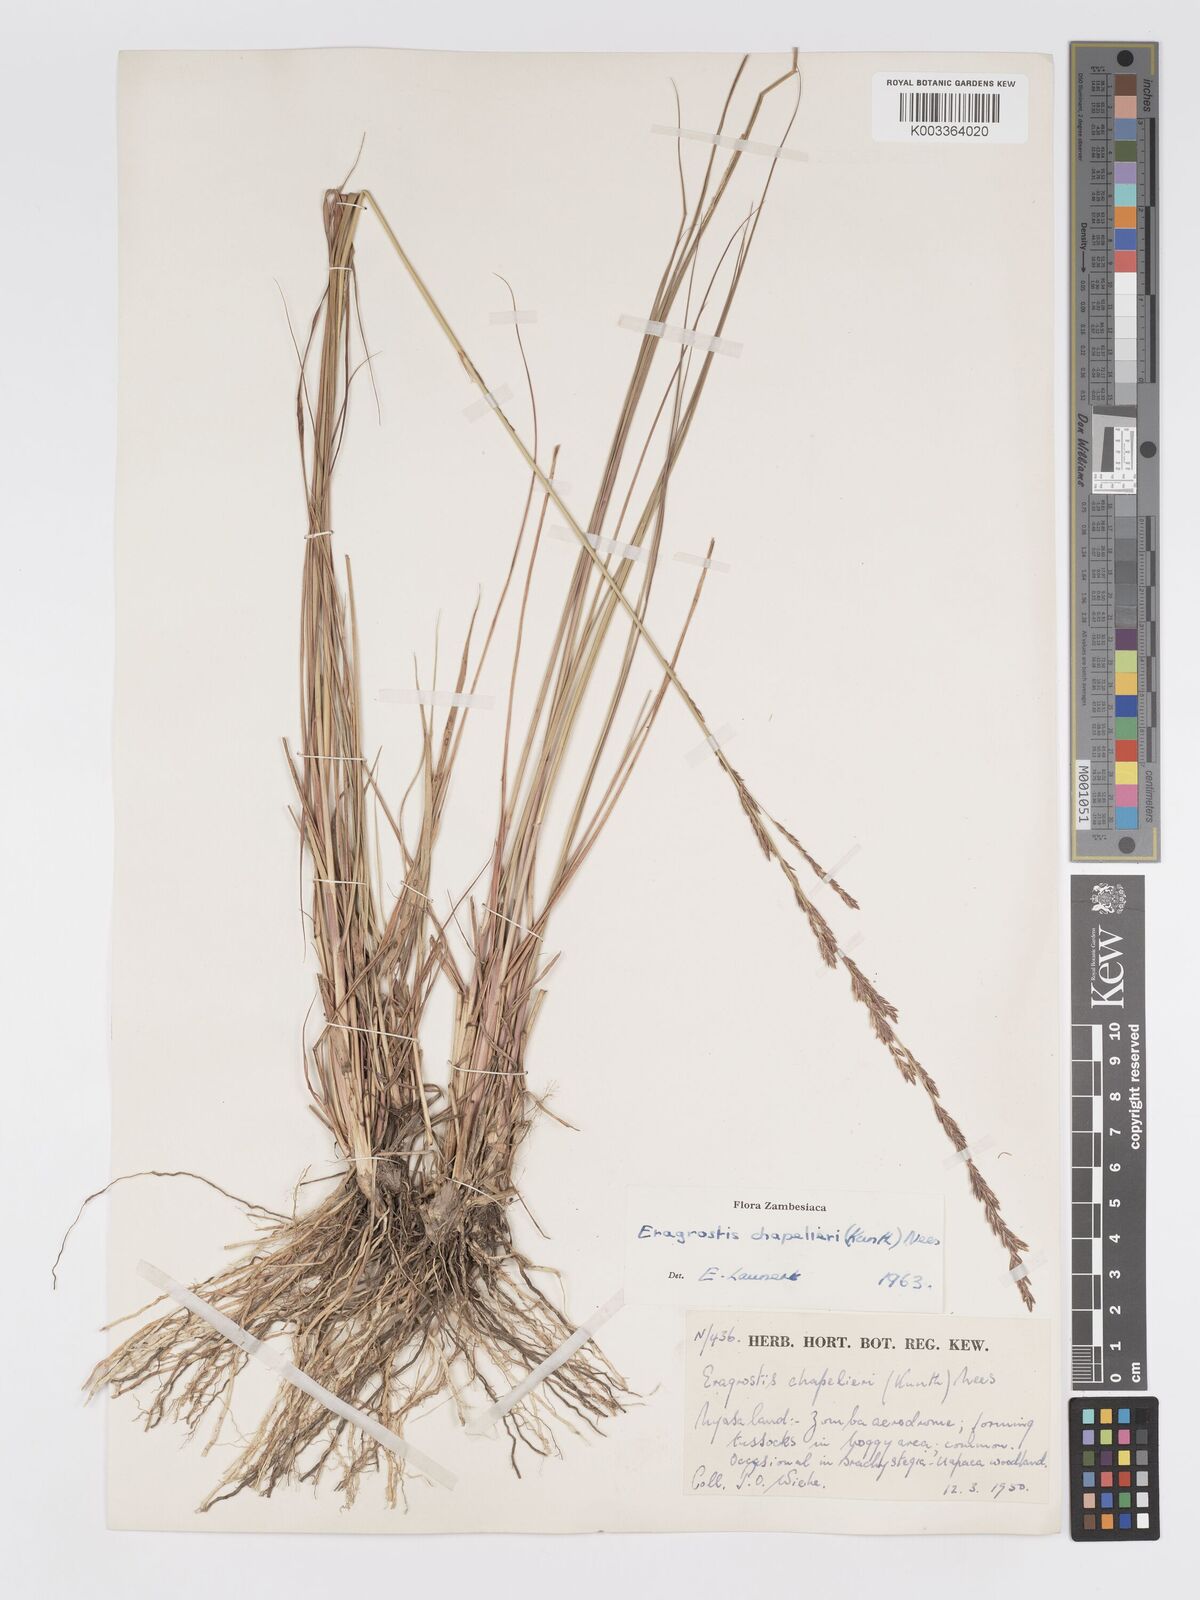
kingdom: Plantae
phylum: Tracheophyta
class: Liliopsida
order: Poales
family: Poaceae
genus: Eragrostis
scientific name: Eragrostis chapelieri
